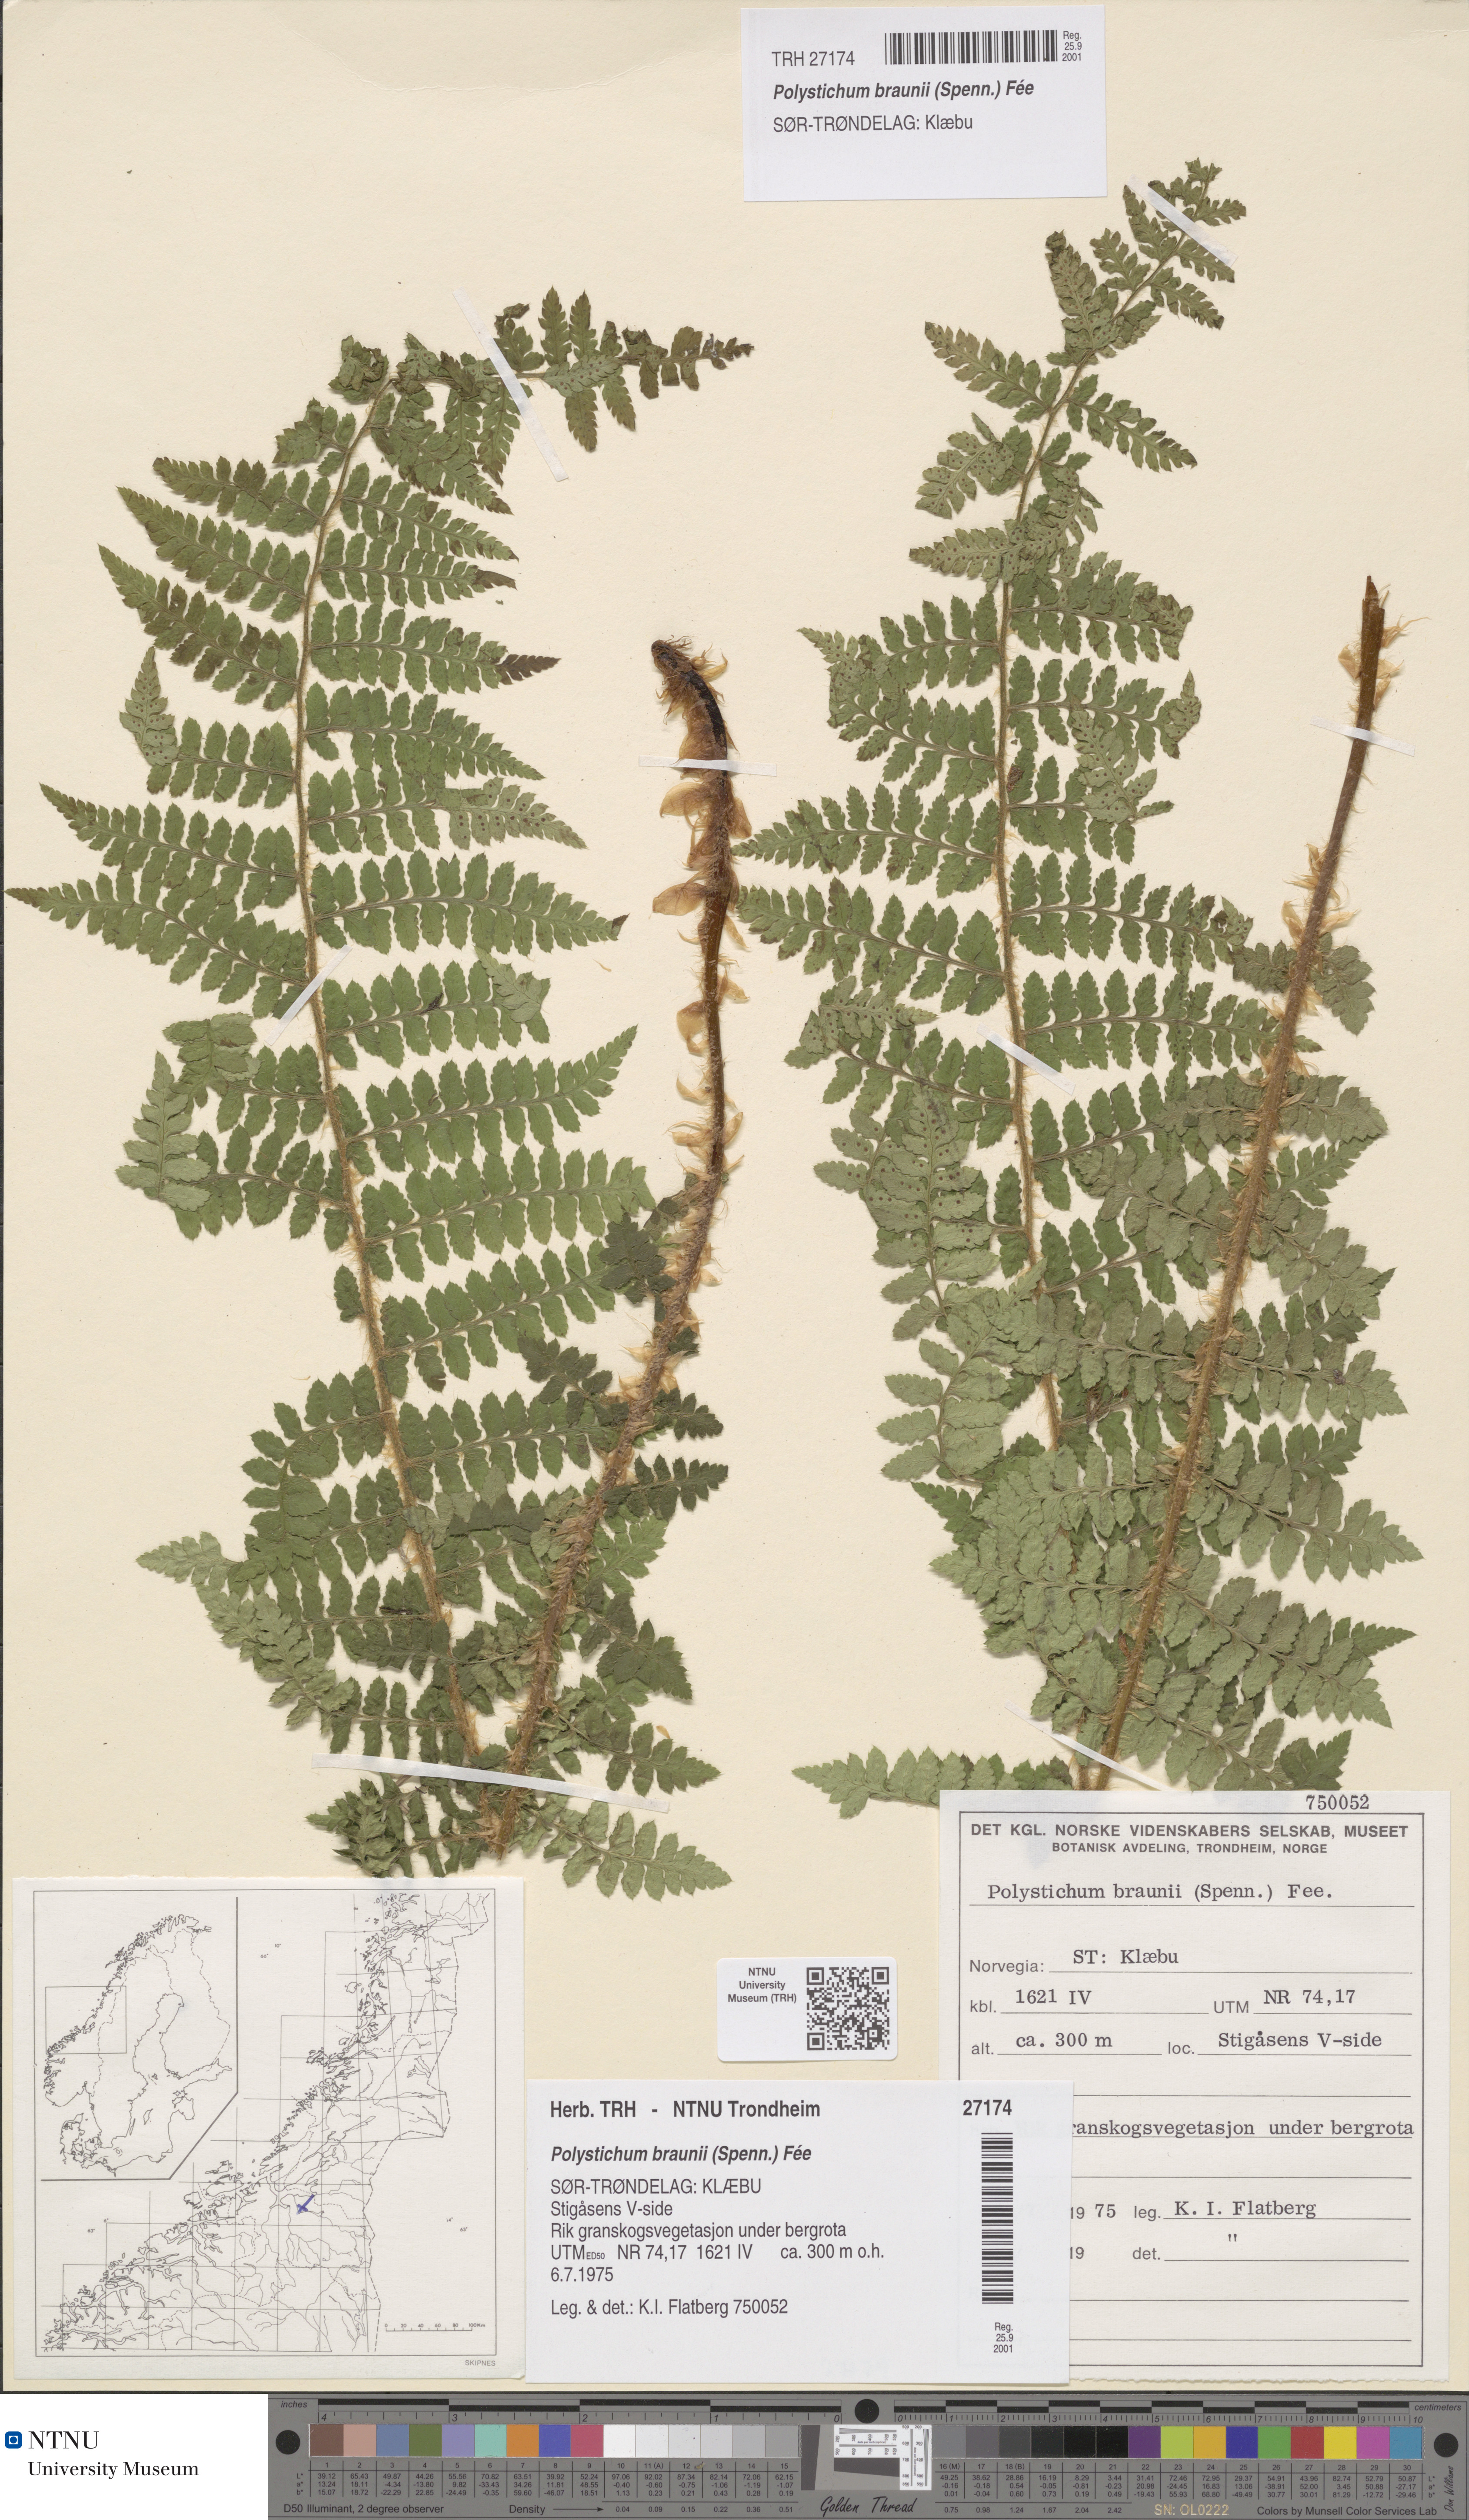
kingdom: Plantae
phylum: Tracheophyta
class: Polypodiopsida
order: Polypodiales
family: Dryopteridaceae
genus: Polystichum
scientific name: Polystichum braunii
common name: Braun's holly fern
